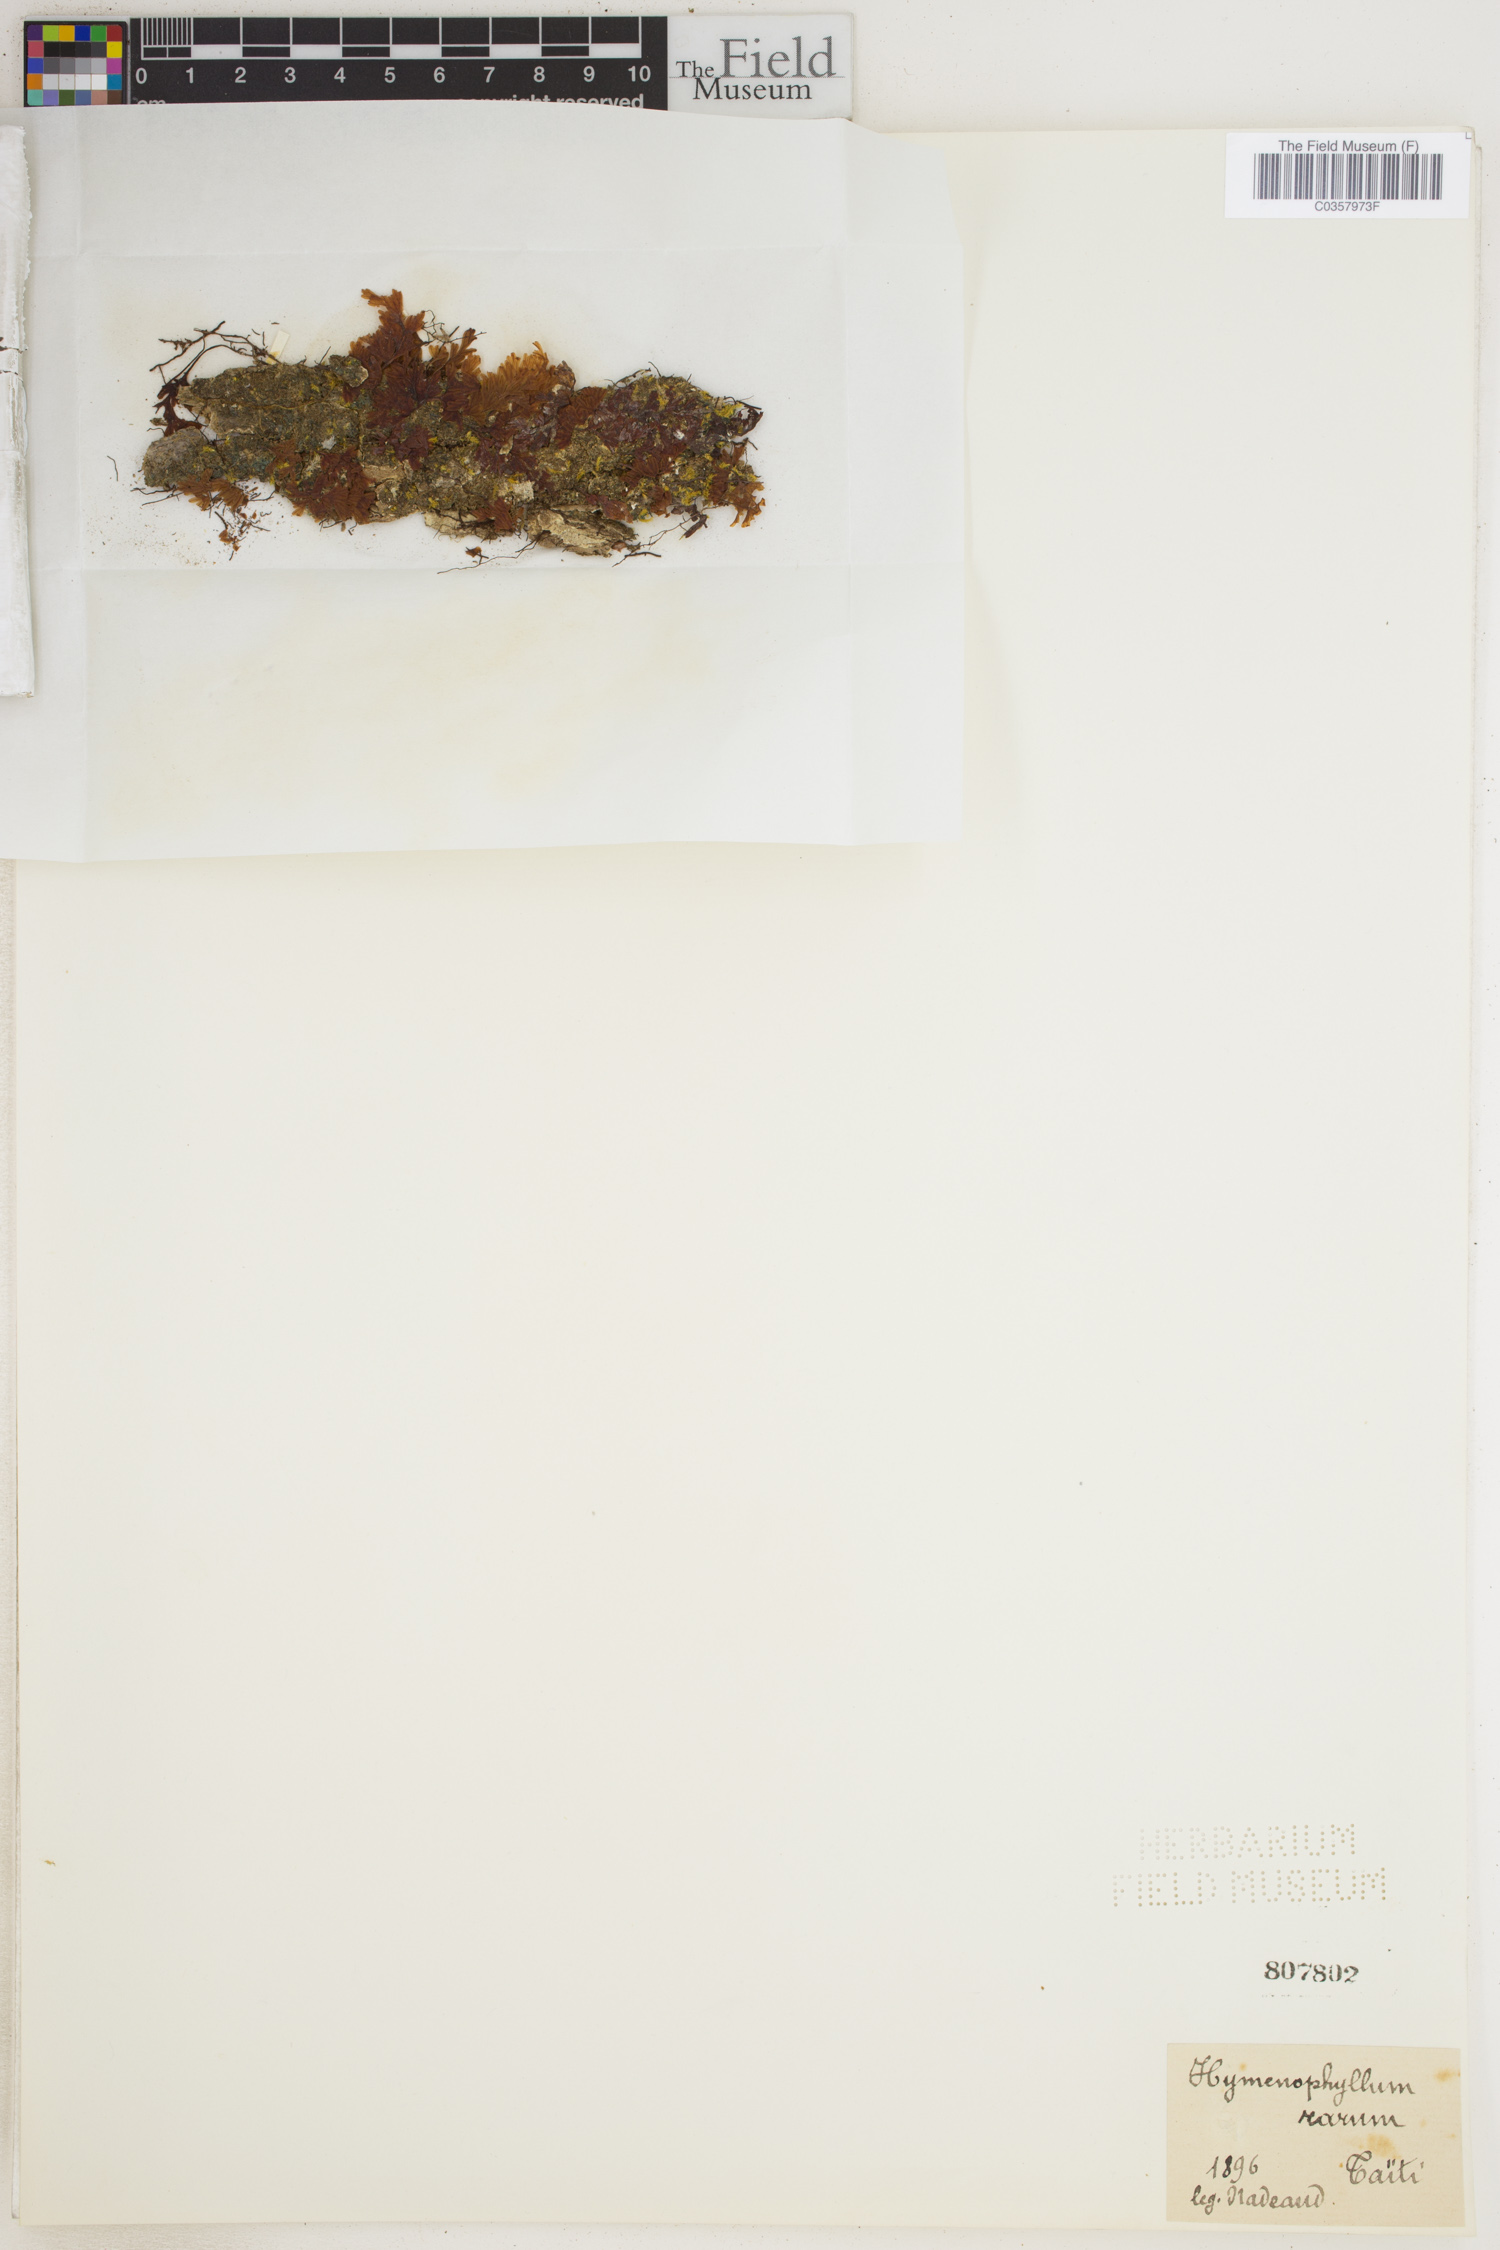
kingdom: Plantae
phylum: Tracheophyta
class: Polypodiopsida
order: Hymenophyllales
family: Hymenophyllaceae
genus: Hymenophyllum
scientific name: Hymenophyllum rarum
